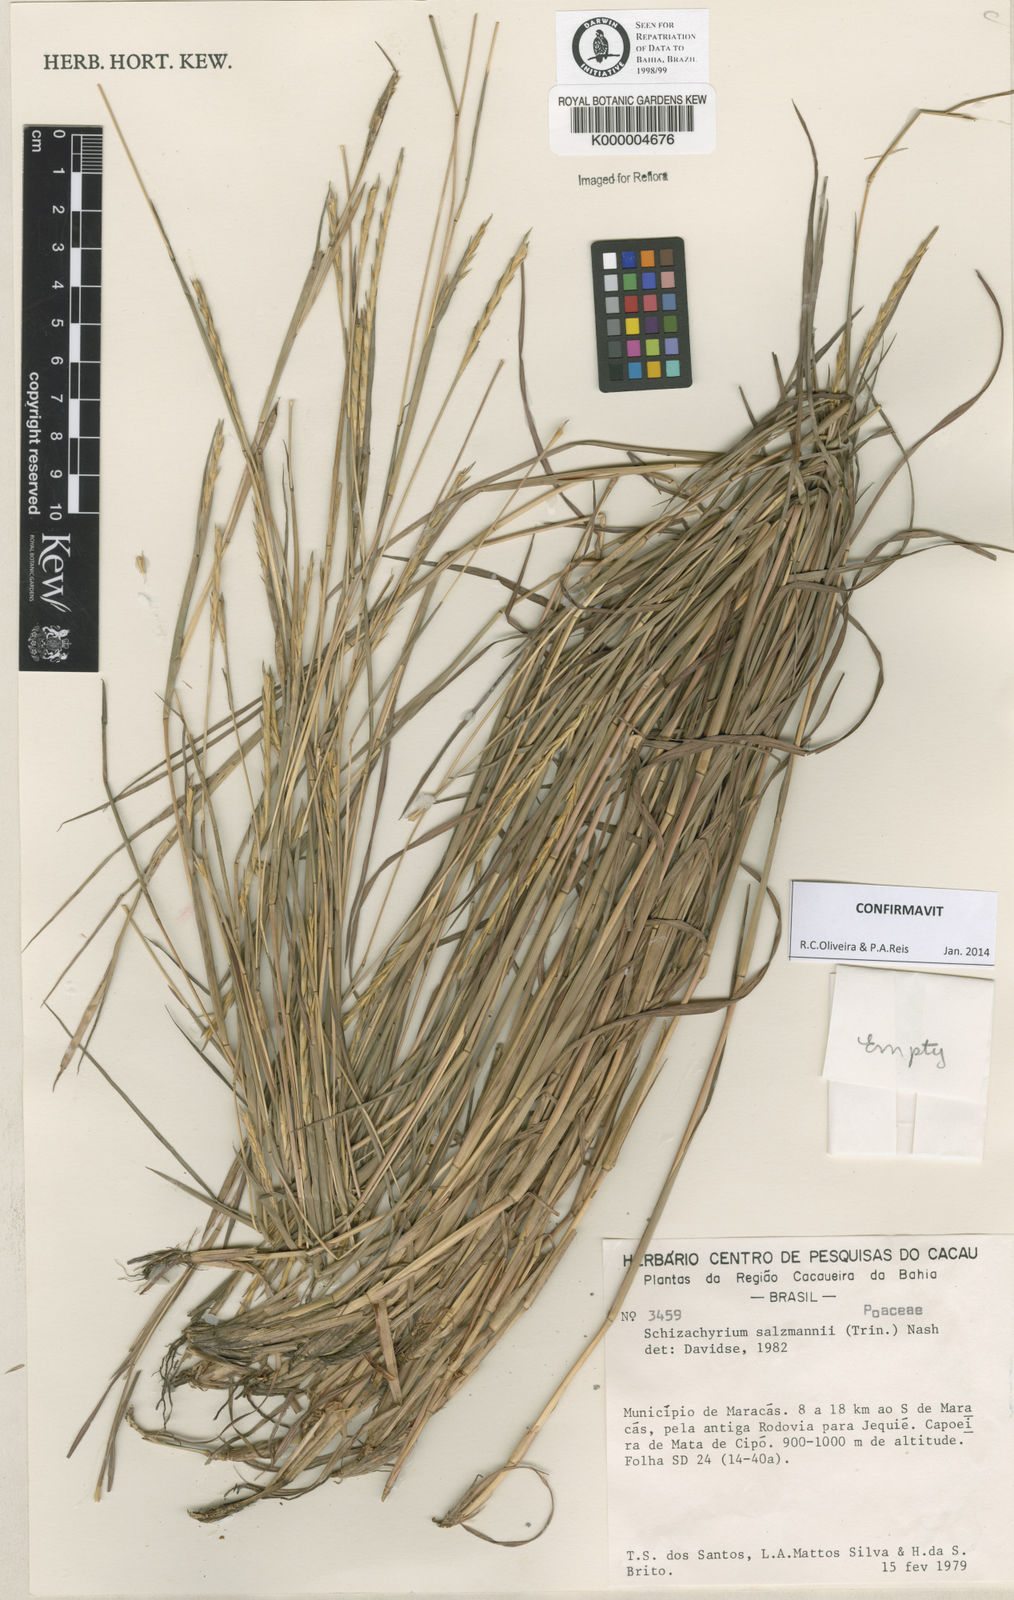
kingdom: Plantae
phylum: Tracheophyta
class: Liliopsida
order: Poales
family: Poaceae
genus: Andropogon
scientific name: Andropogon salzmannii
